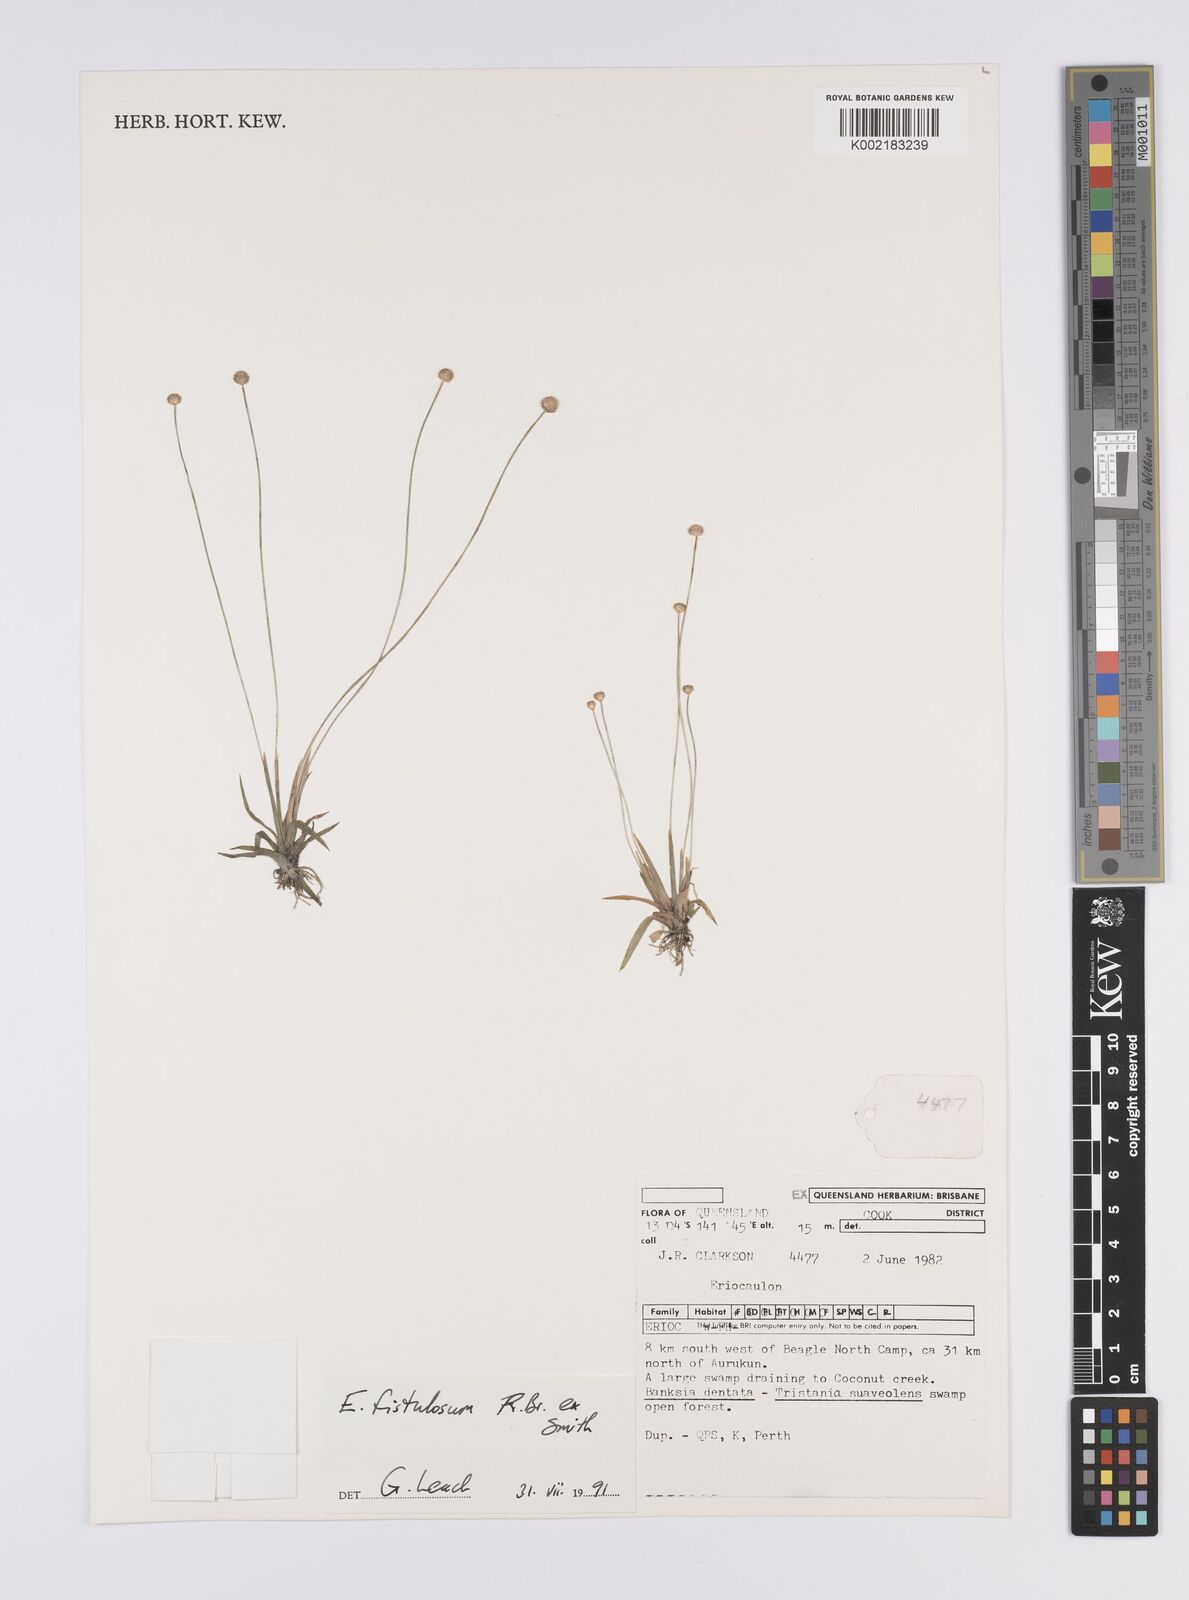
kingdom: Plantae
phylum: Tracheophyta
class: Liliopsida
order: Poales
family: Eriocaulaceae
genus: Eriocaulon
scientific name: Eriocaulon fistulosum
